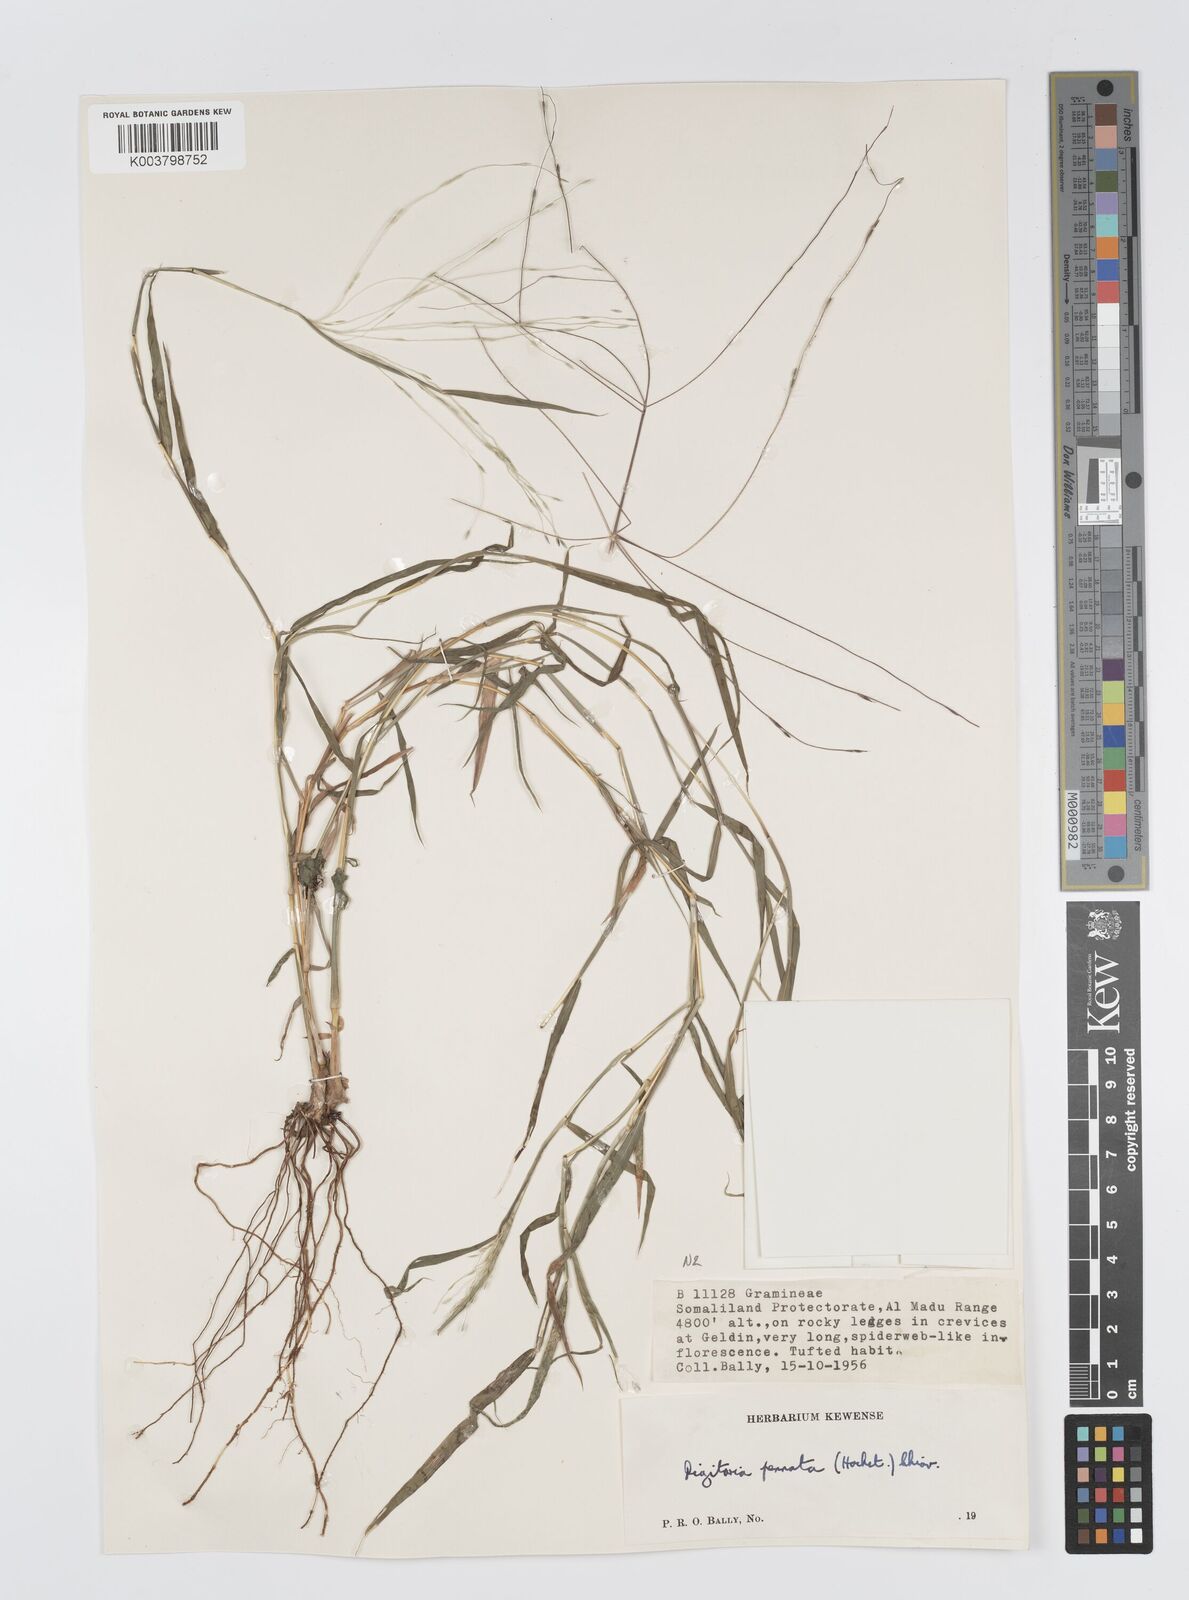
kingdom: Plantae
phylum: Tracheophyta
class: Liliopsida
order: Poales
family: Poaceae
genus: Digitaria
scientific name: Digitaria pennata
